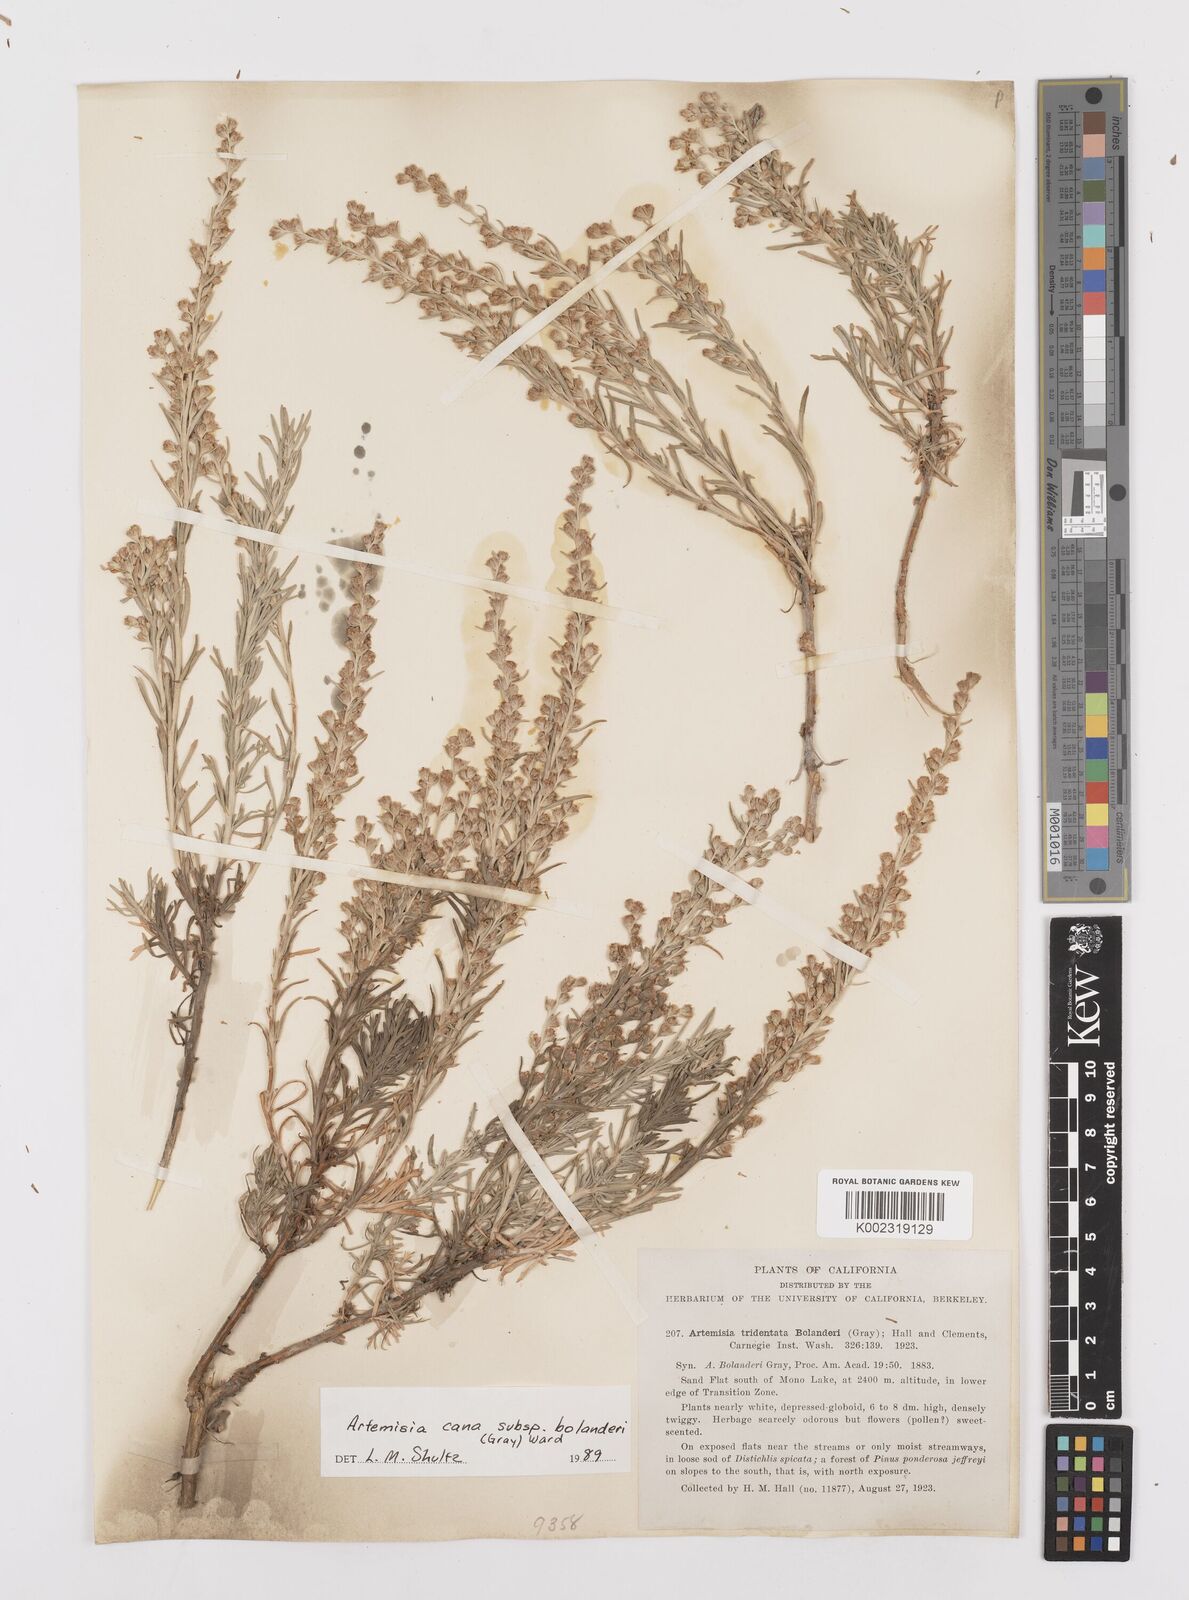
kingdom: Plantae
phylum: Tracheophyta
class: Magnoliopsida
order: Asterales
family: Asteraceae
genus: Artemisia
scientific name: Artemisia cana
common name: Silver sagebrush
